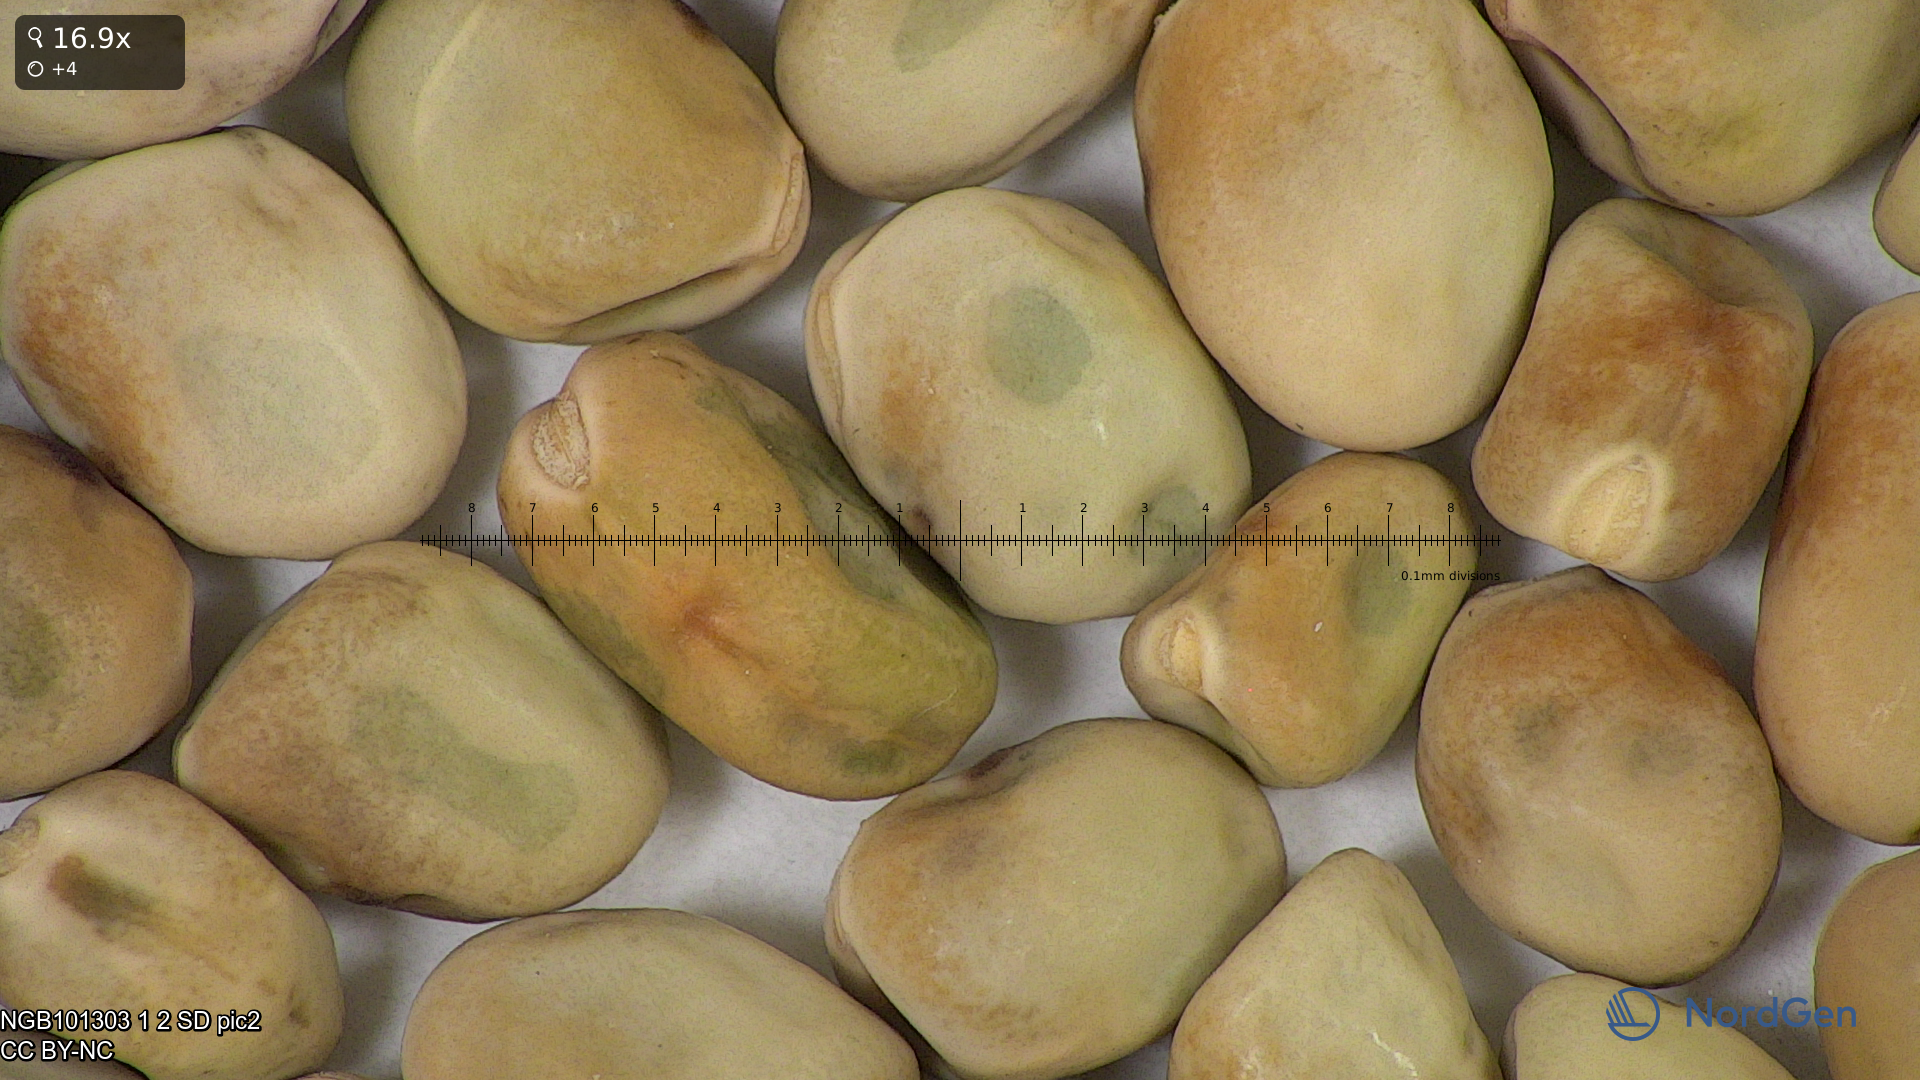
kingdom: Plantae
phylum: Tracheophyta
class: Magnoliopsida
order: Fabales
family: Fabaceae
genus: Lathyrus
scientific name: Lathyrus oleraceus
